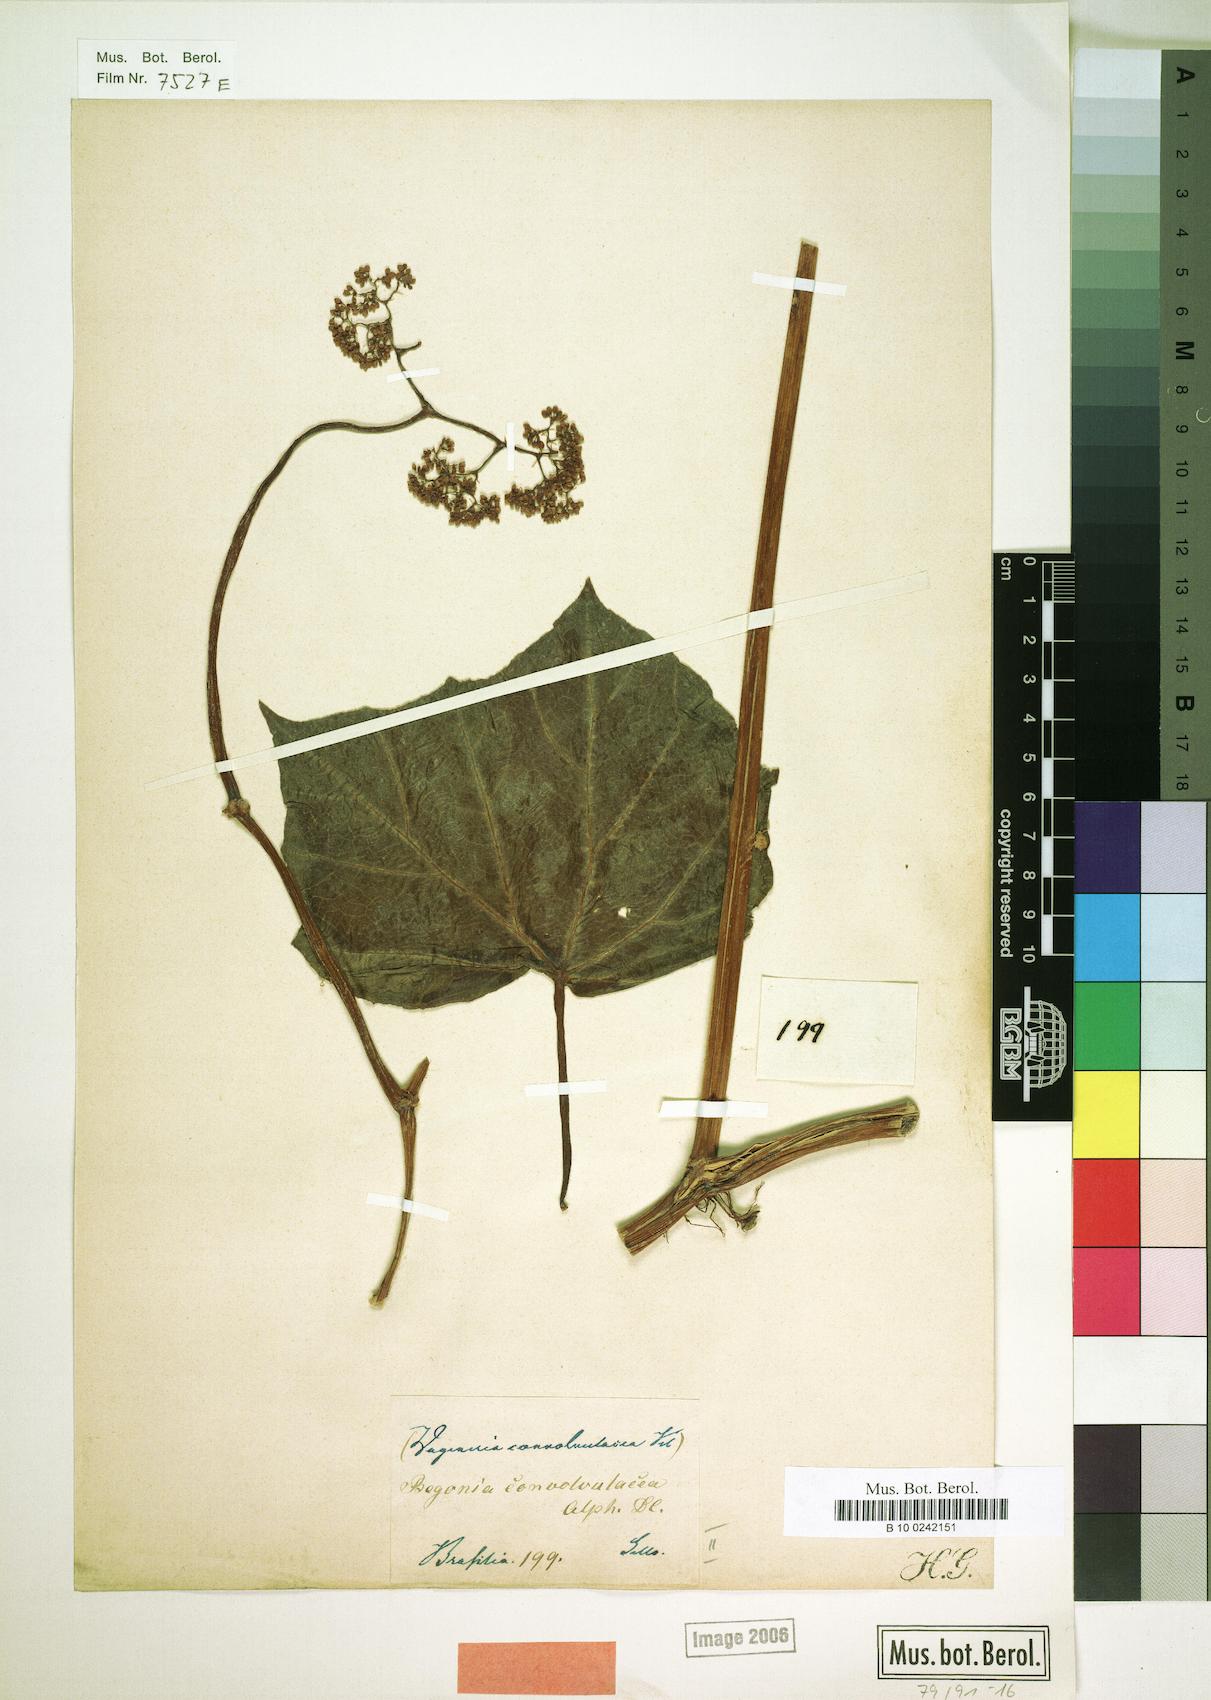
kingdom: Plantae
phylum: Tracheophyta
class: Magnoliopsida
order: Cucurbitales
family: Begoniaceae
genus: Begonia
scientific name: Begonia convolvulacea
